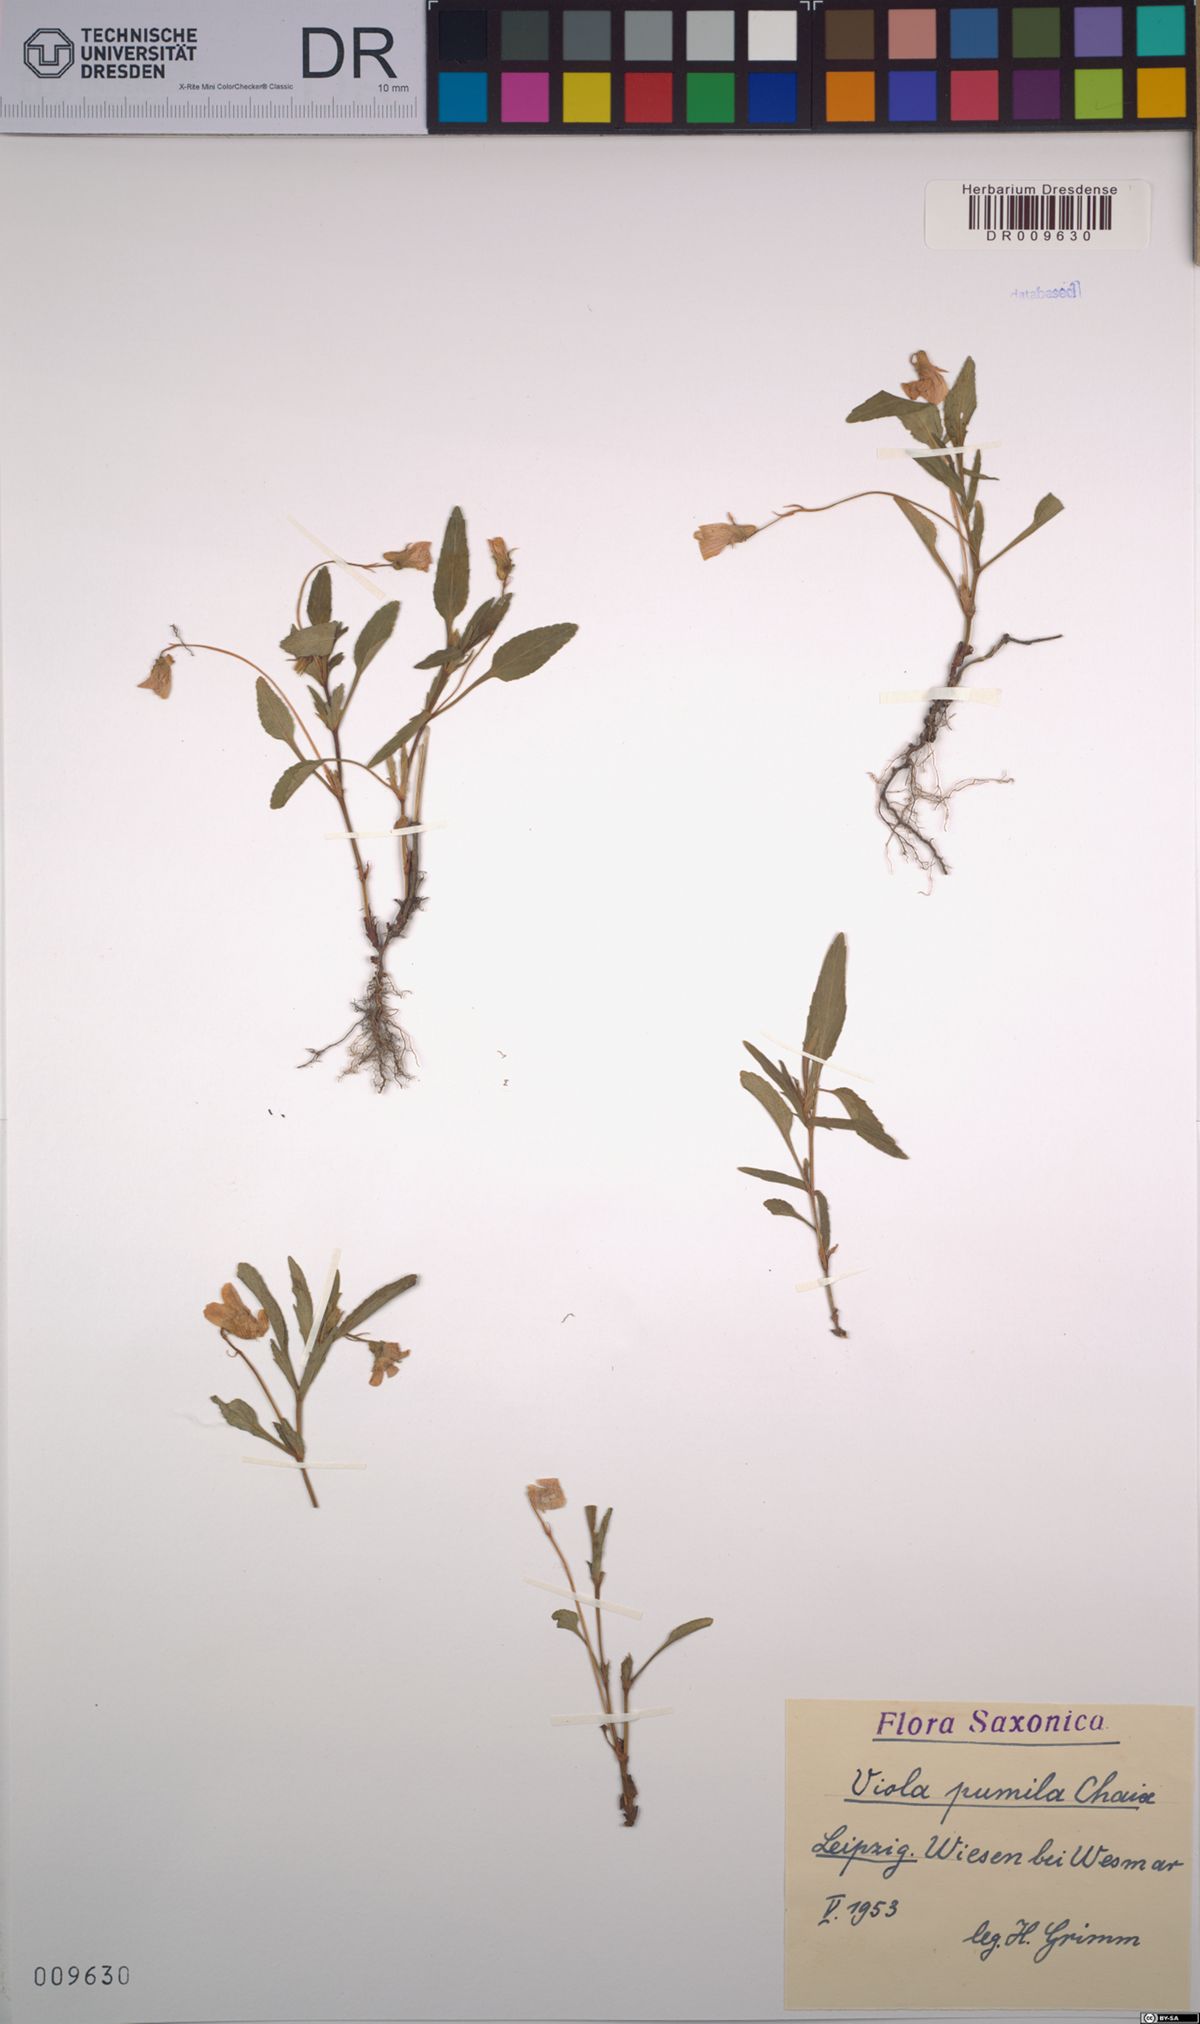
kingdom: Plantae
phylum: Tracheophyta
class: Magnoliopsida
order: Malpighiales
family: Violaceae
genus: Viola
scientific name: Viola pumila
